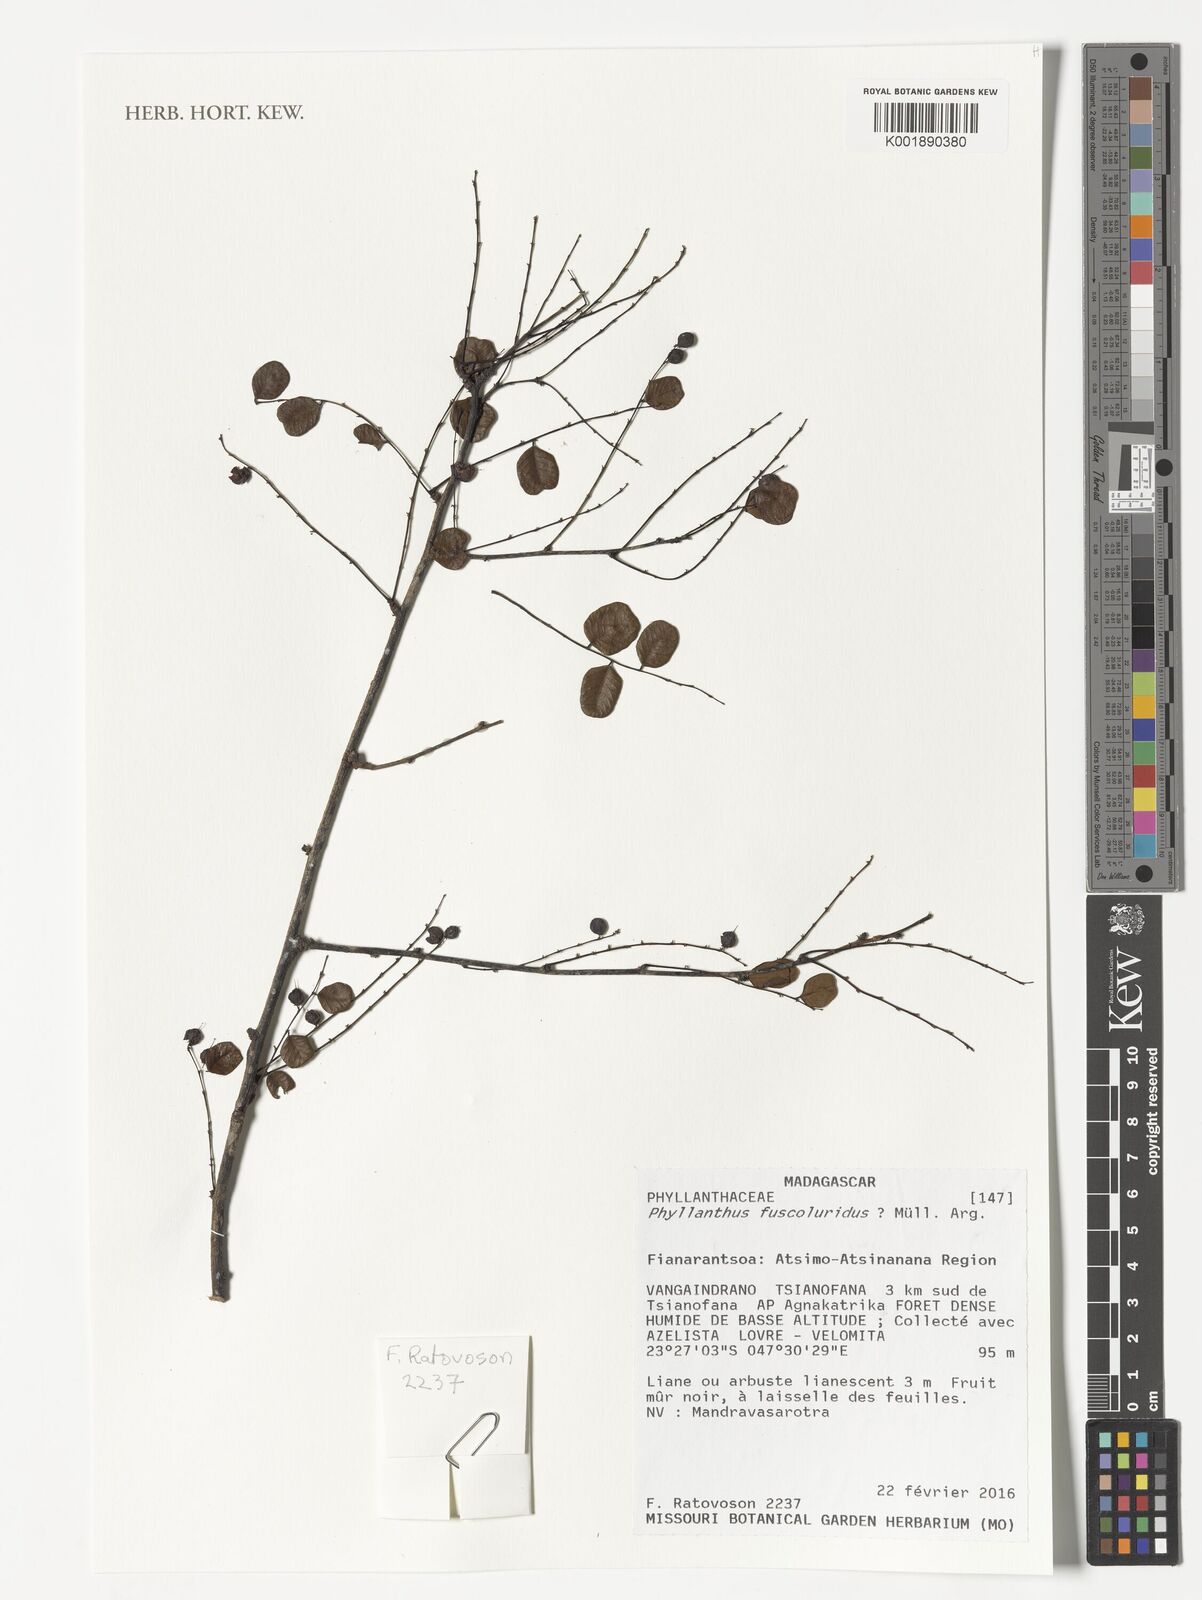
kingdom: Plantae
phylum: Tracheophyta
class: Magnoliopsida
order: Malpighiales
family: Phyllanthaceae
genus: Phyllanthus
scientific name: Phyllanthus fuscoluridus
